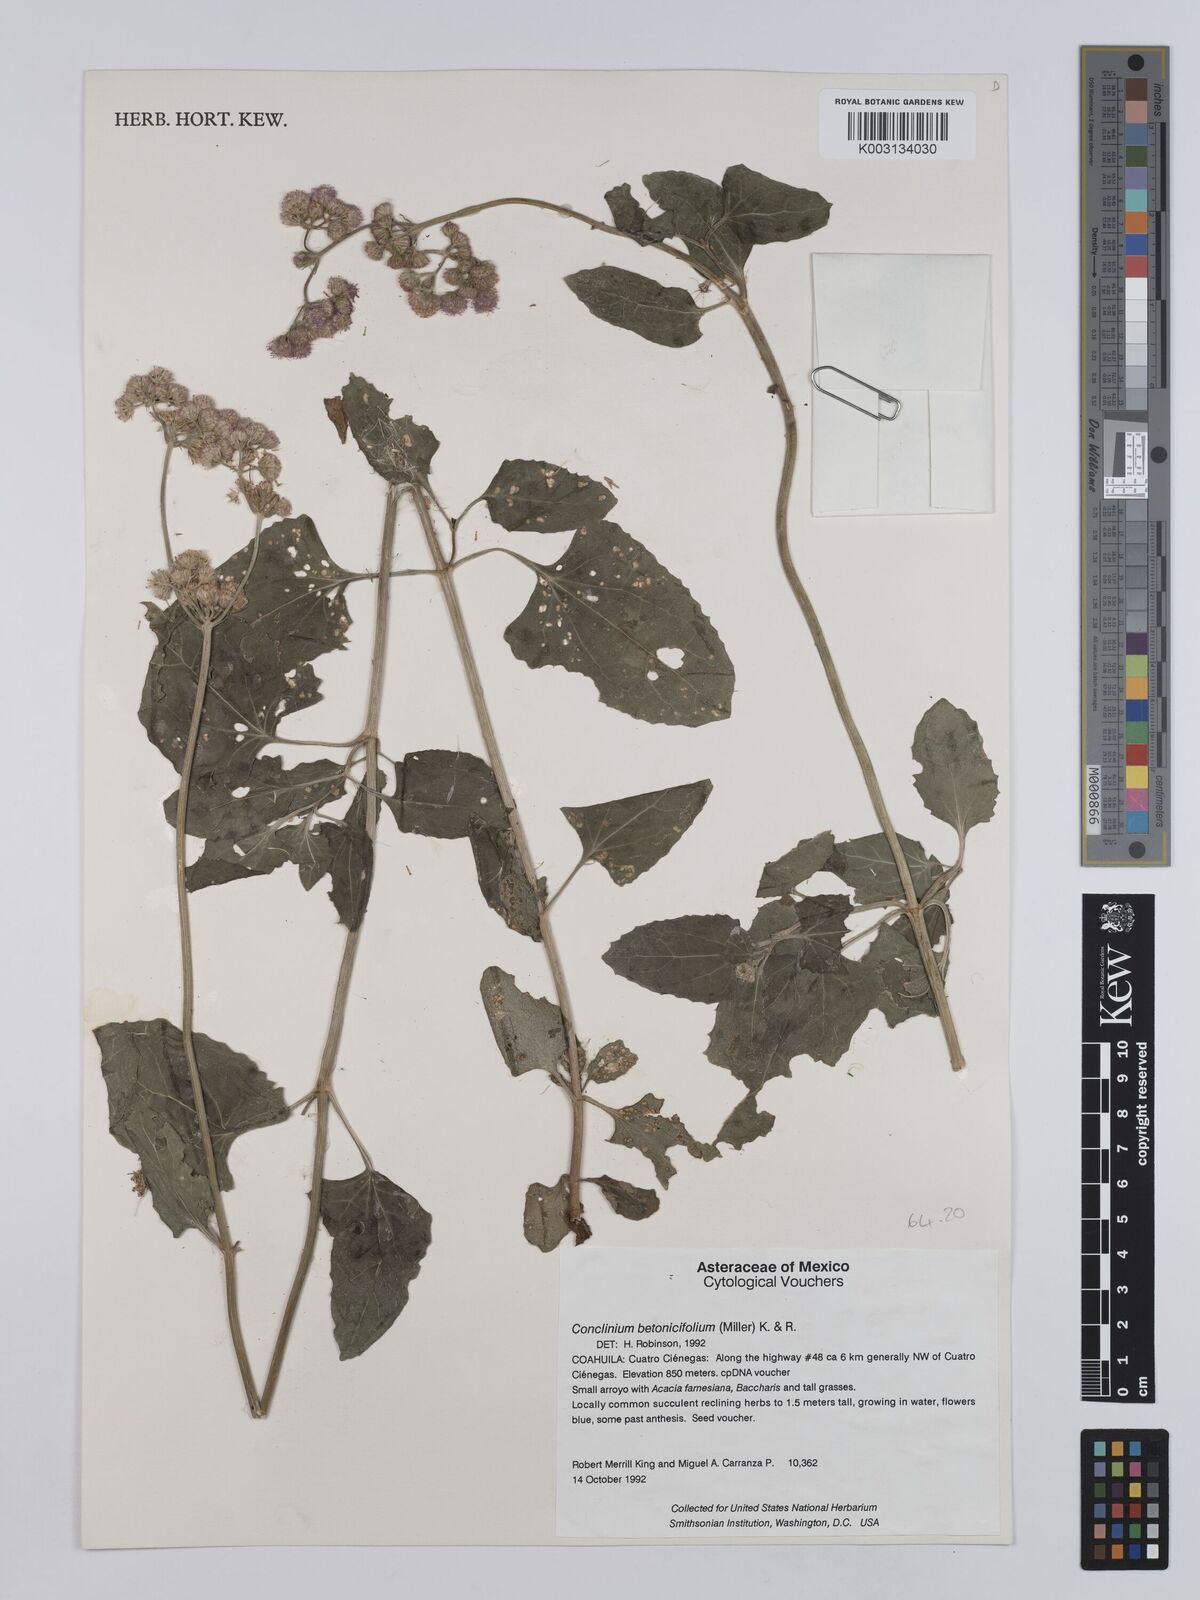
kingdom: Plantae
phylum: Tracheophyta
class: Magnoliopsida
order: Asterales
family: Asteraceae
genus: Conoclinium
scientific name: Conoclinium betonicifolium
